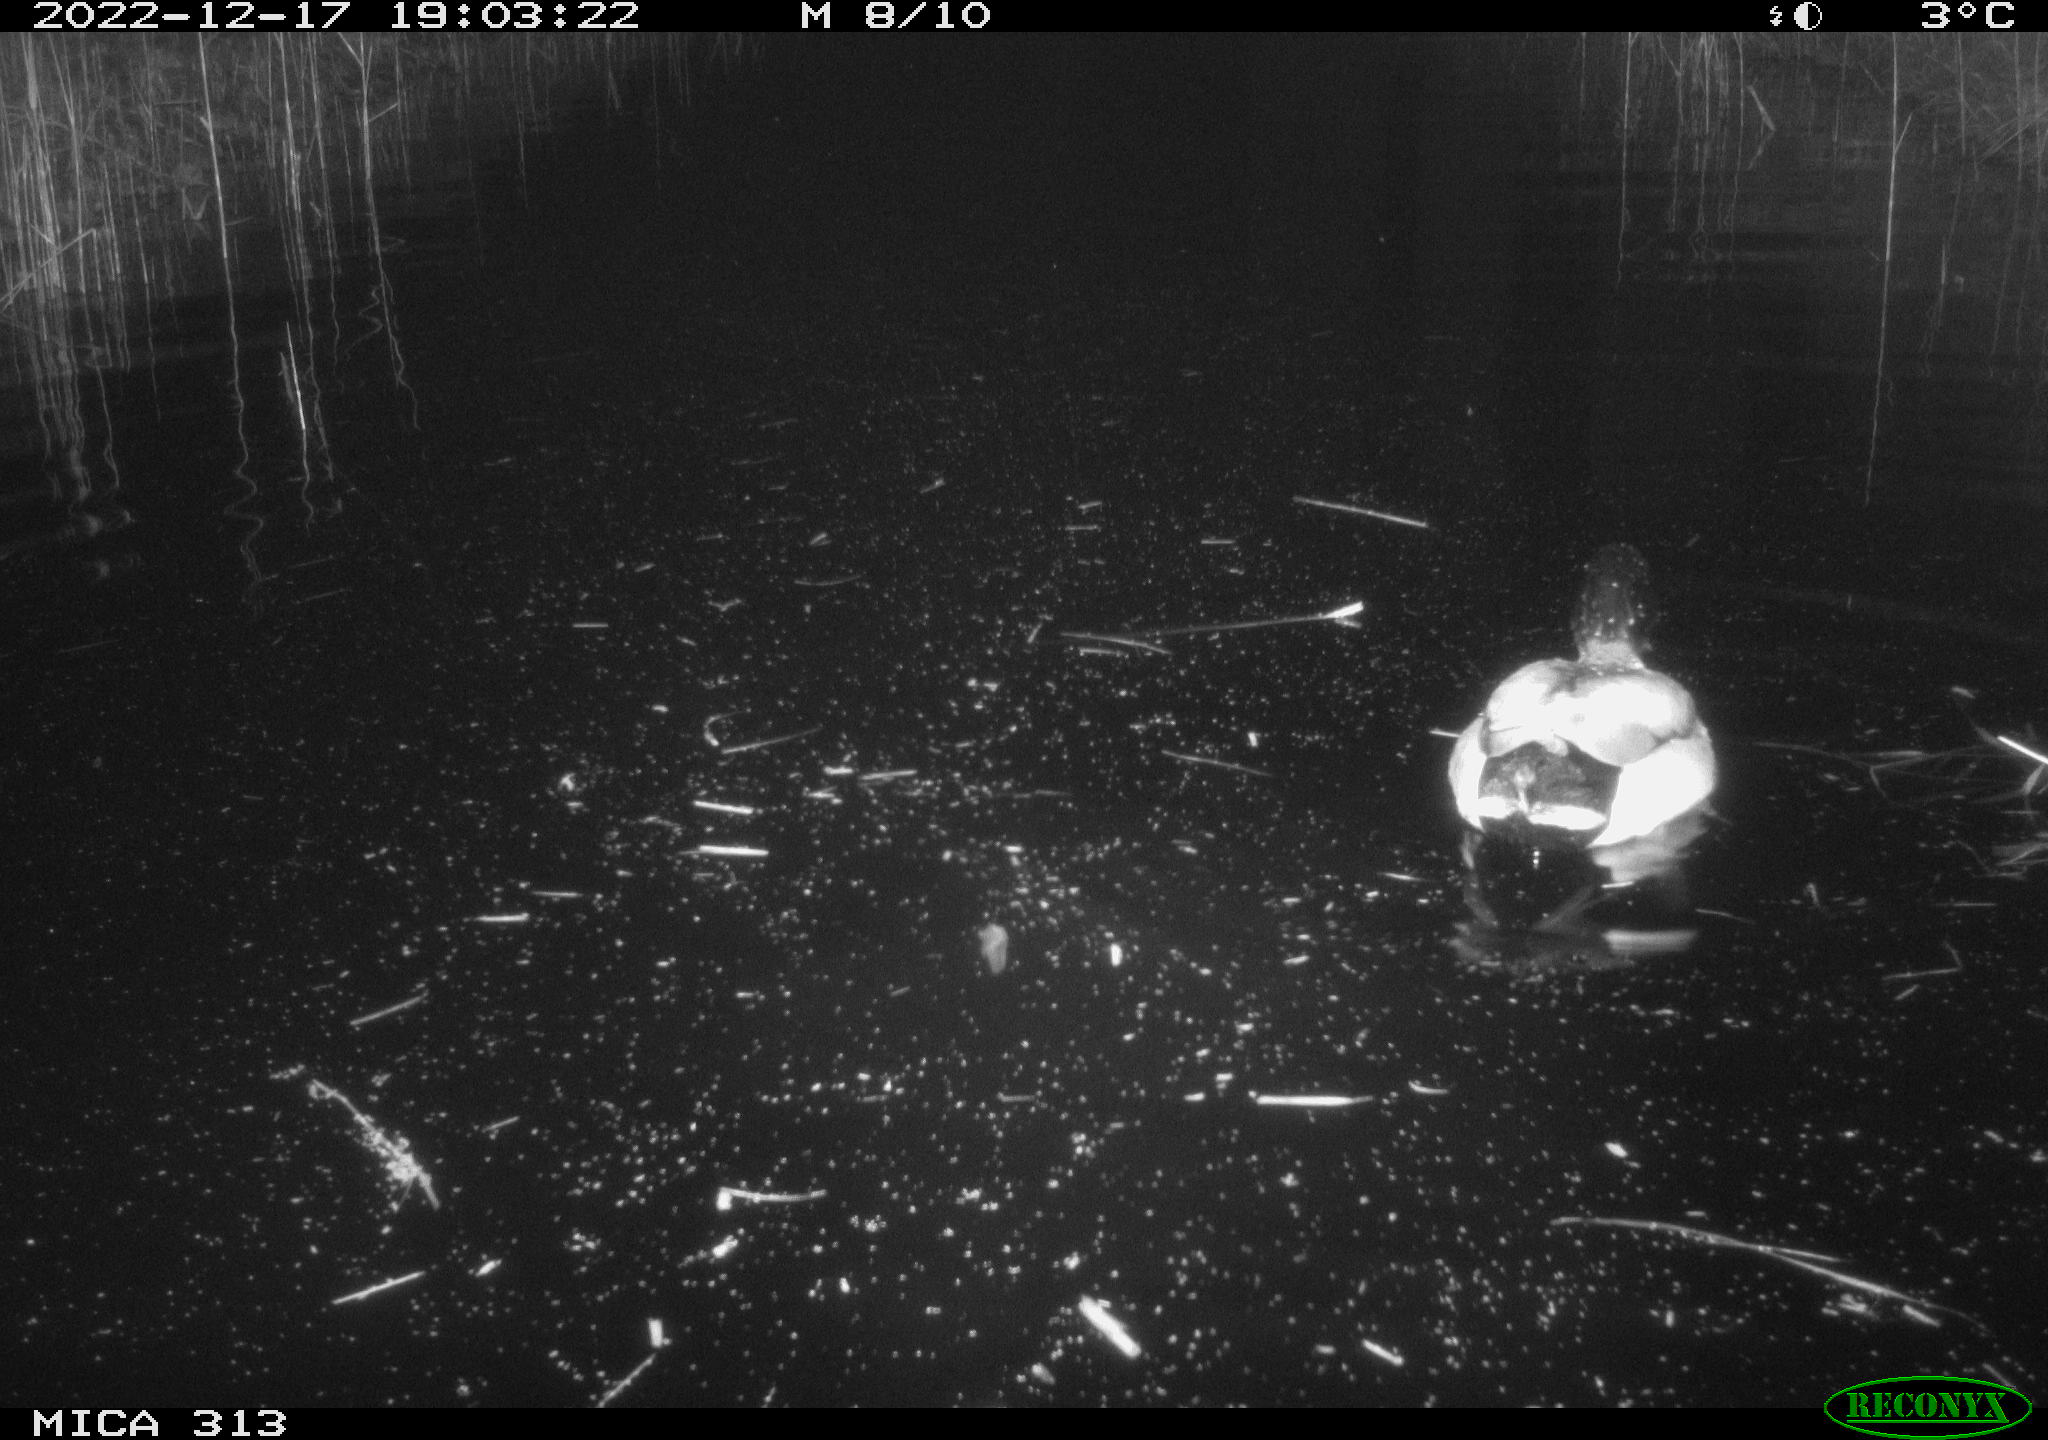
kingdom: Animalia
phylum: Chordata
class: Aves
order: Anseriformes
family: Anatidae
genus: Anas
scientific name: Anas
